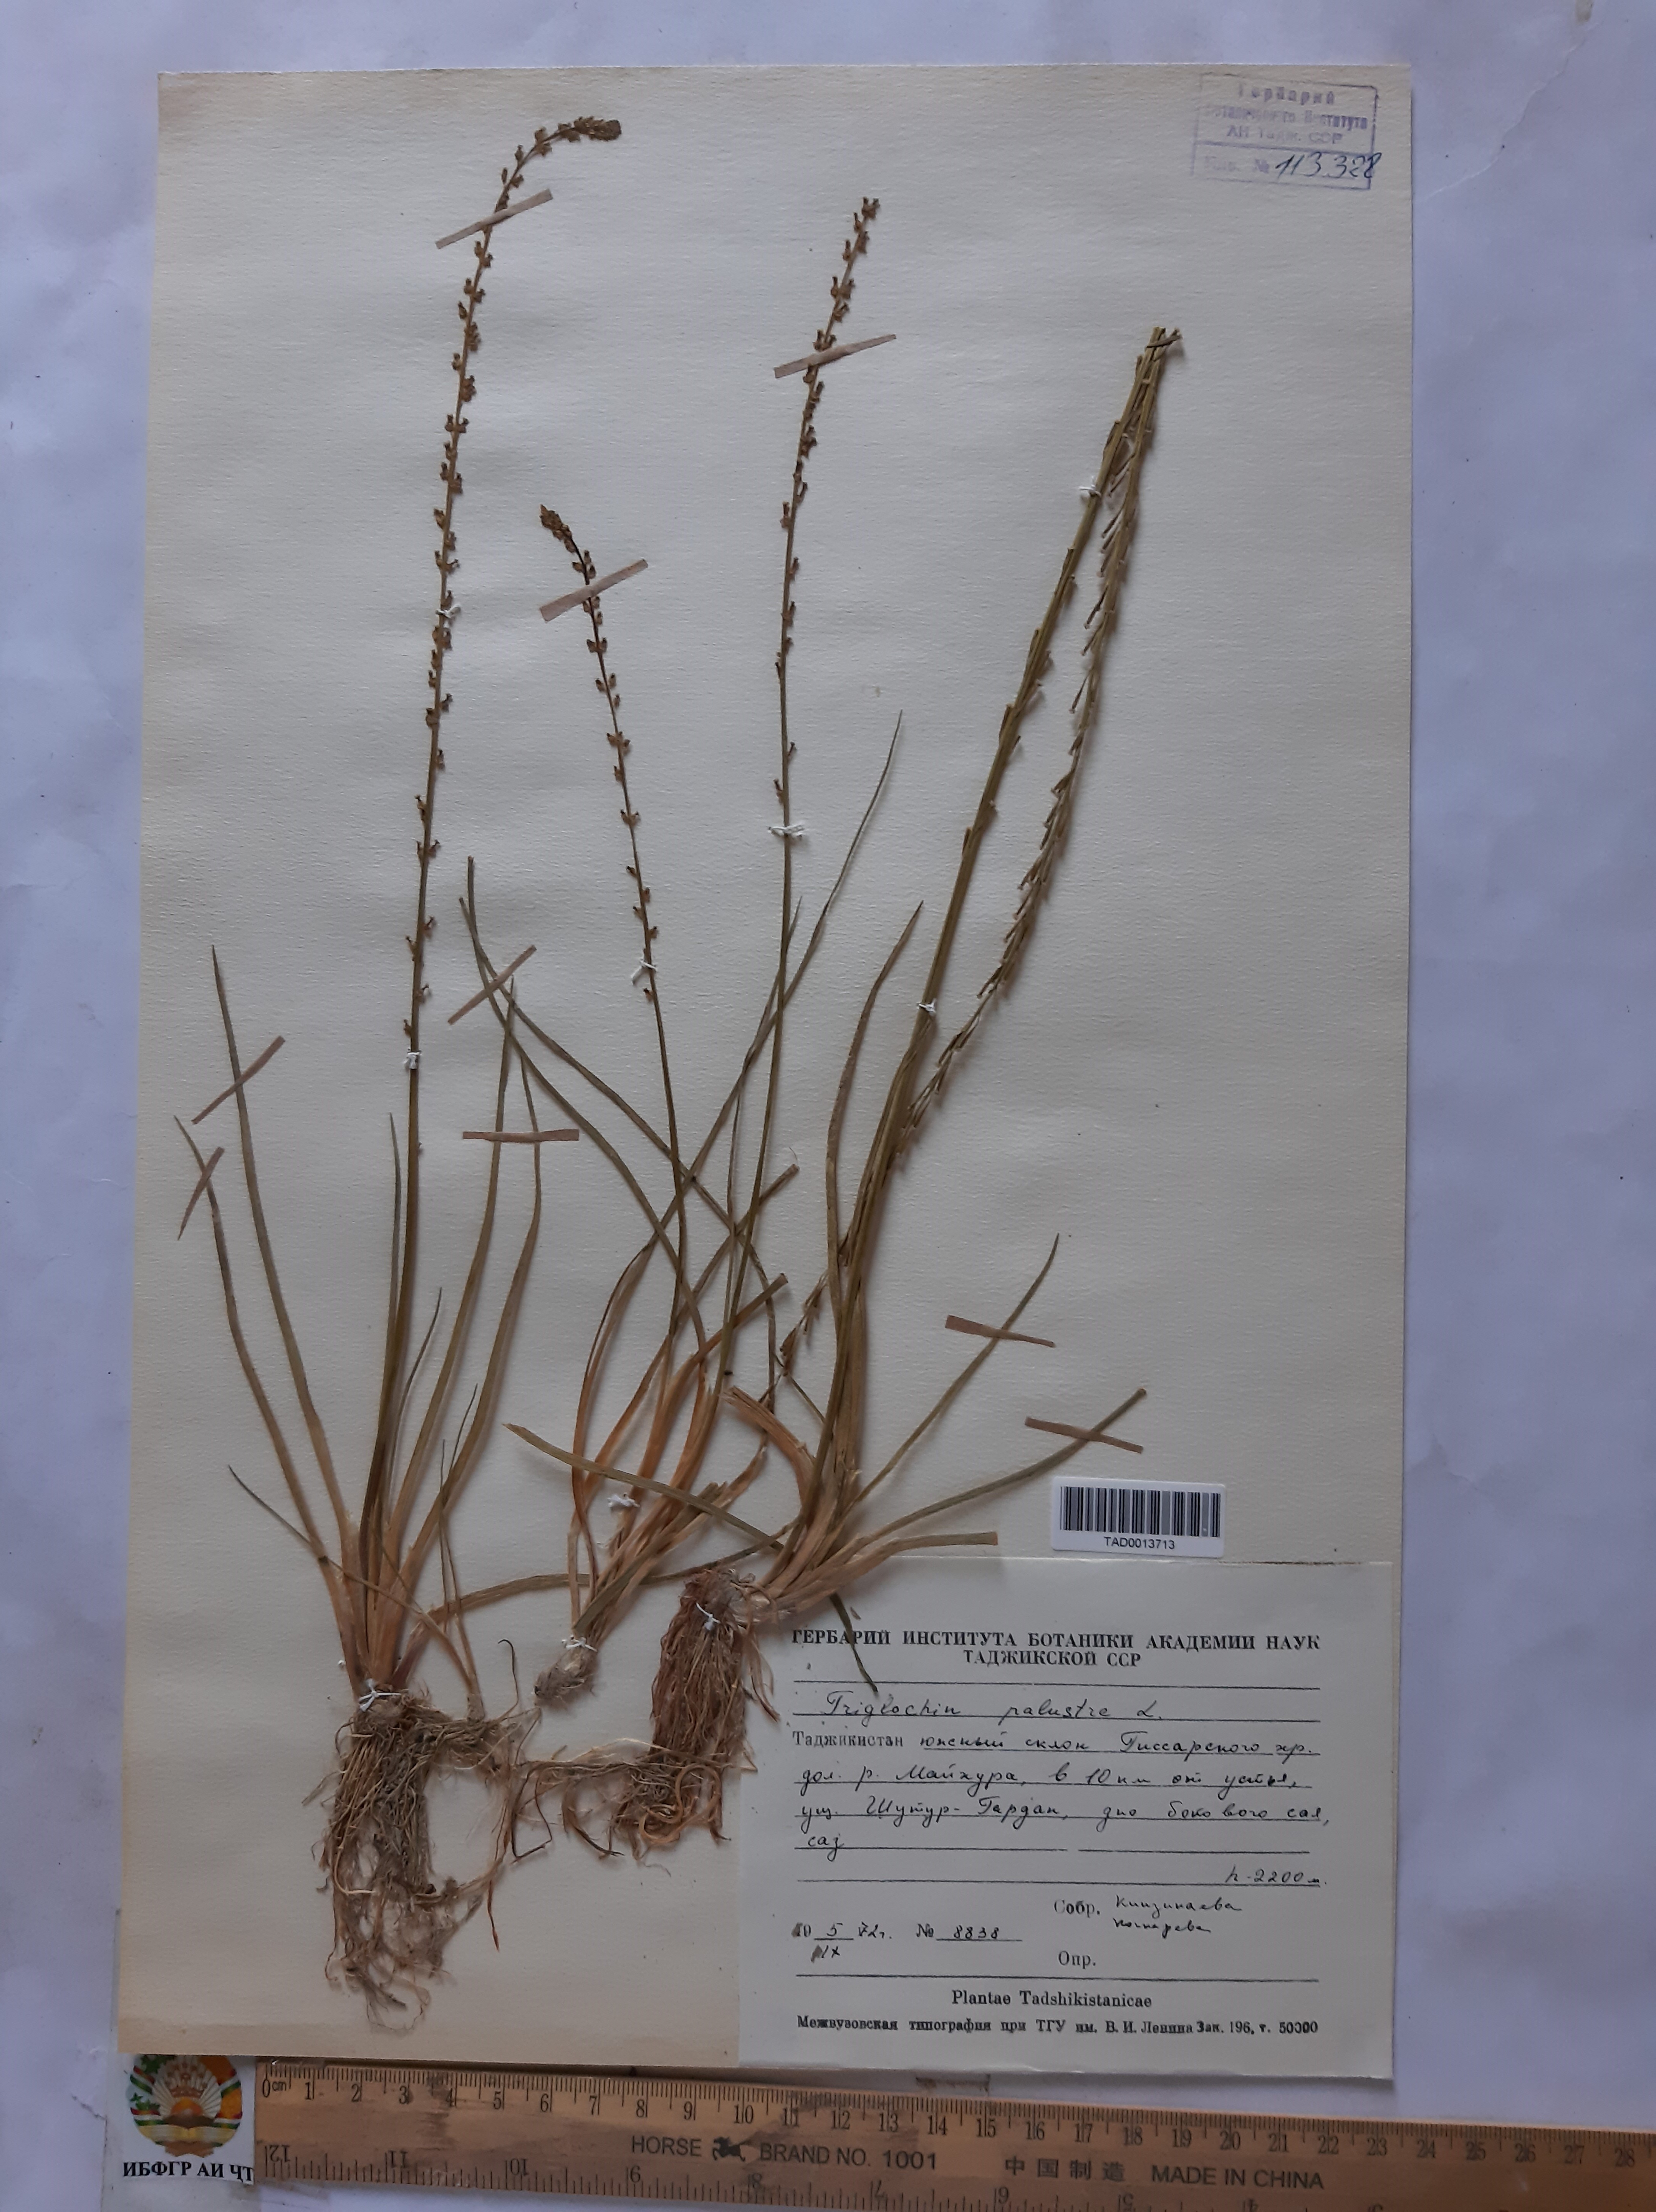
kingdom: Plantae
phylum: Tracheophyta
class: Liliopsida
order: Alismatales
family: Juncaginaceae
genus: Triglochin
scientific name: Triglochin maritima
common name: Sea arrowgrass
